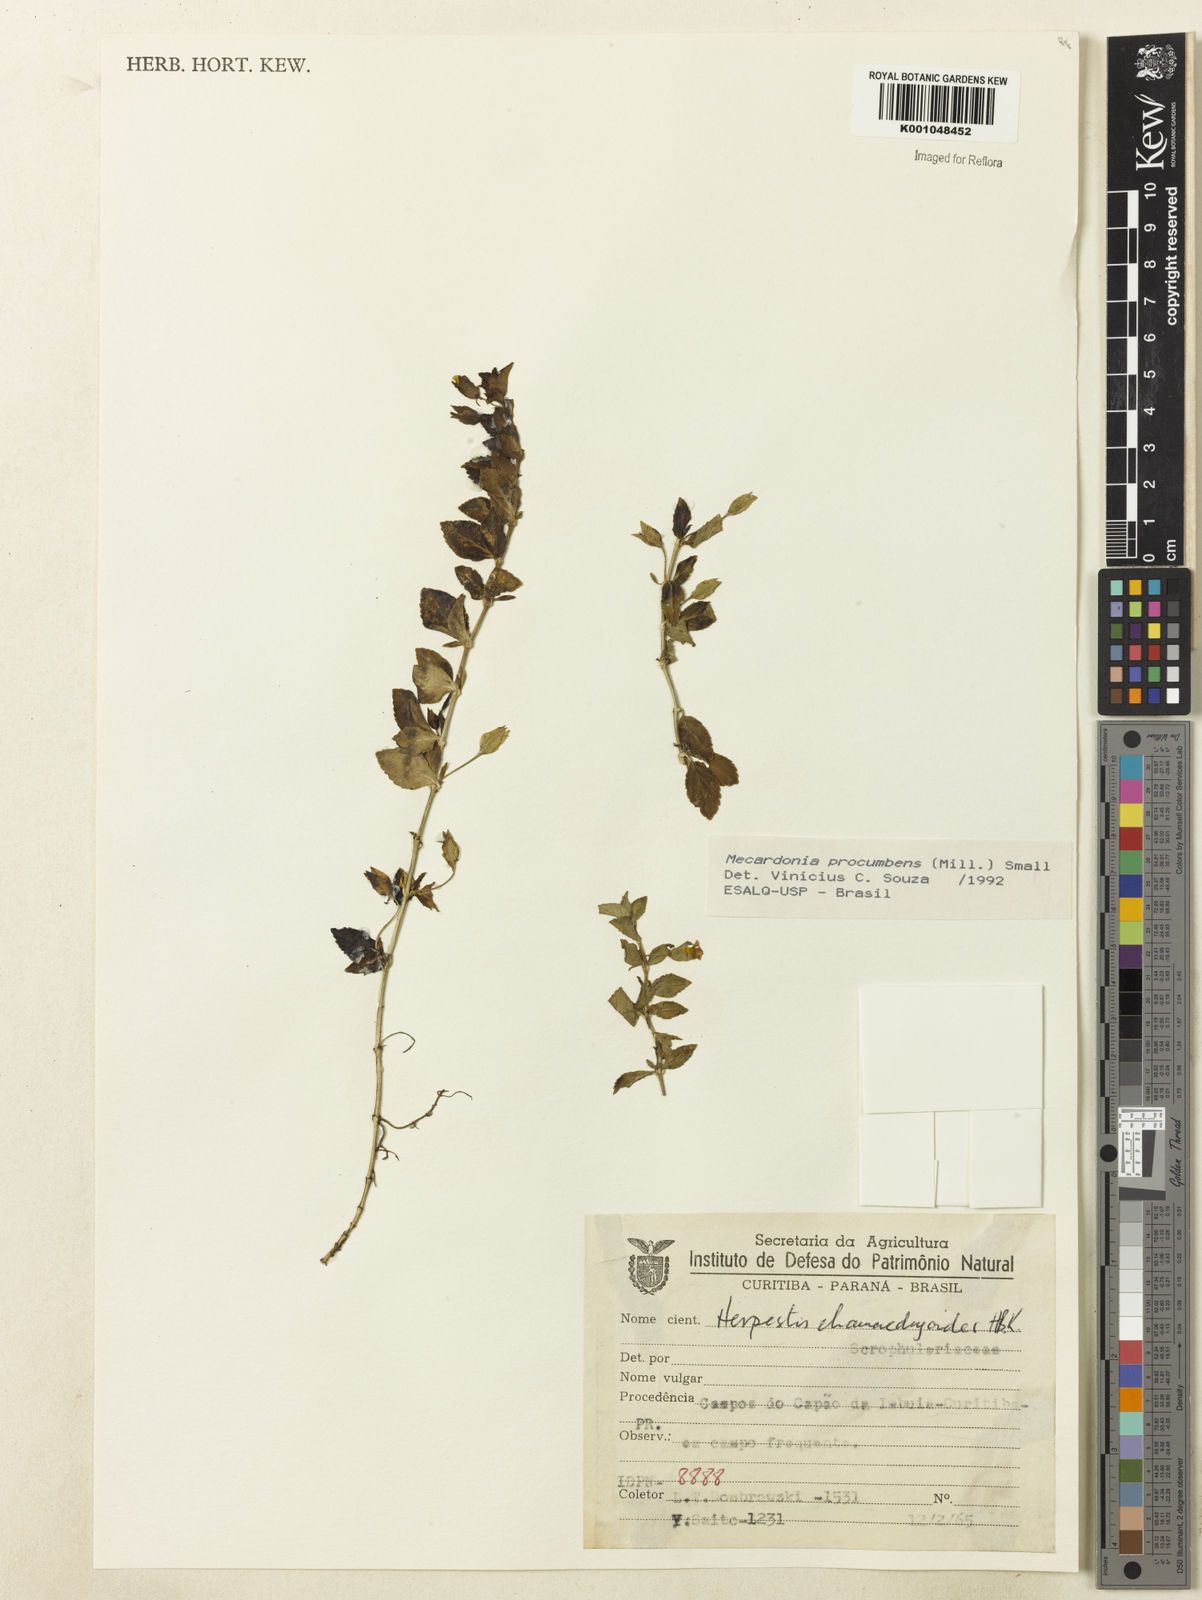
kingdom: Plantae
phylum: Tracheophyta
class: Magnoliopsida
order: Lamiales
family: Plantaginaceae
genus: Mecardonia
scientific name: Mecardonia procumbens
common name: Baby jump-up
